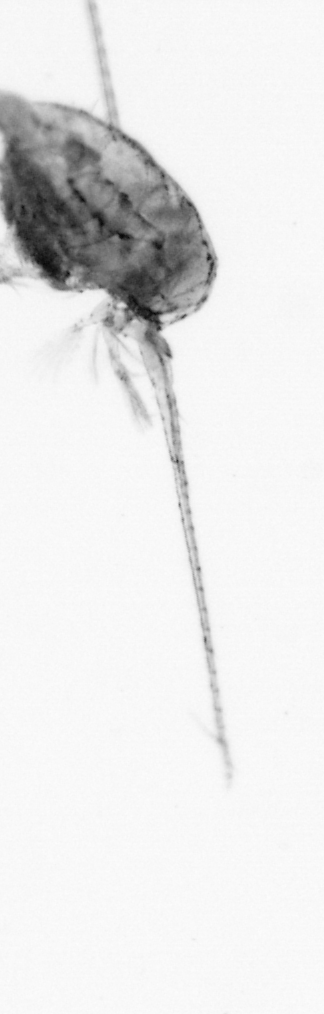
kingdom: Animalia
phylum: Arthropoda
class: Copepoda
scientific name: Copepoda
